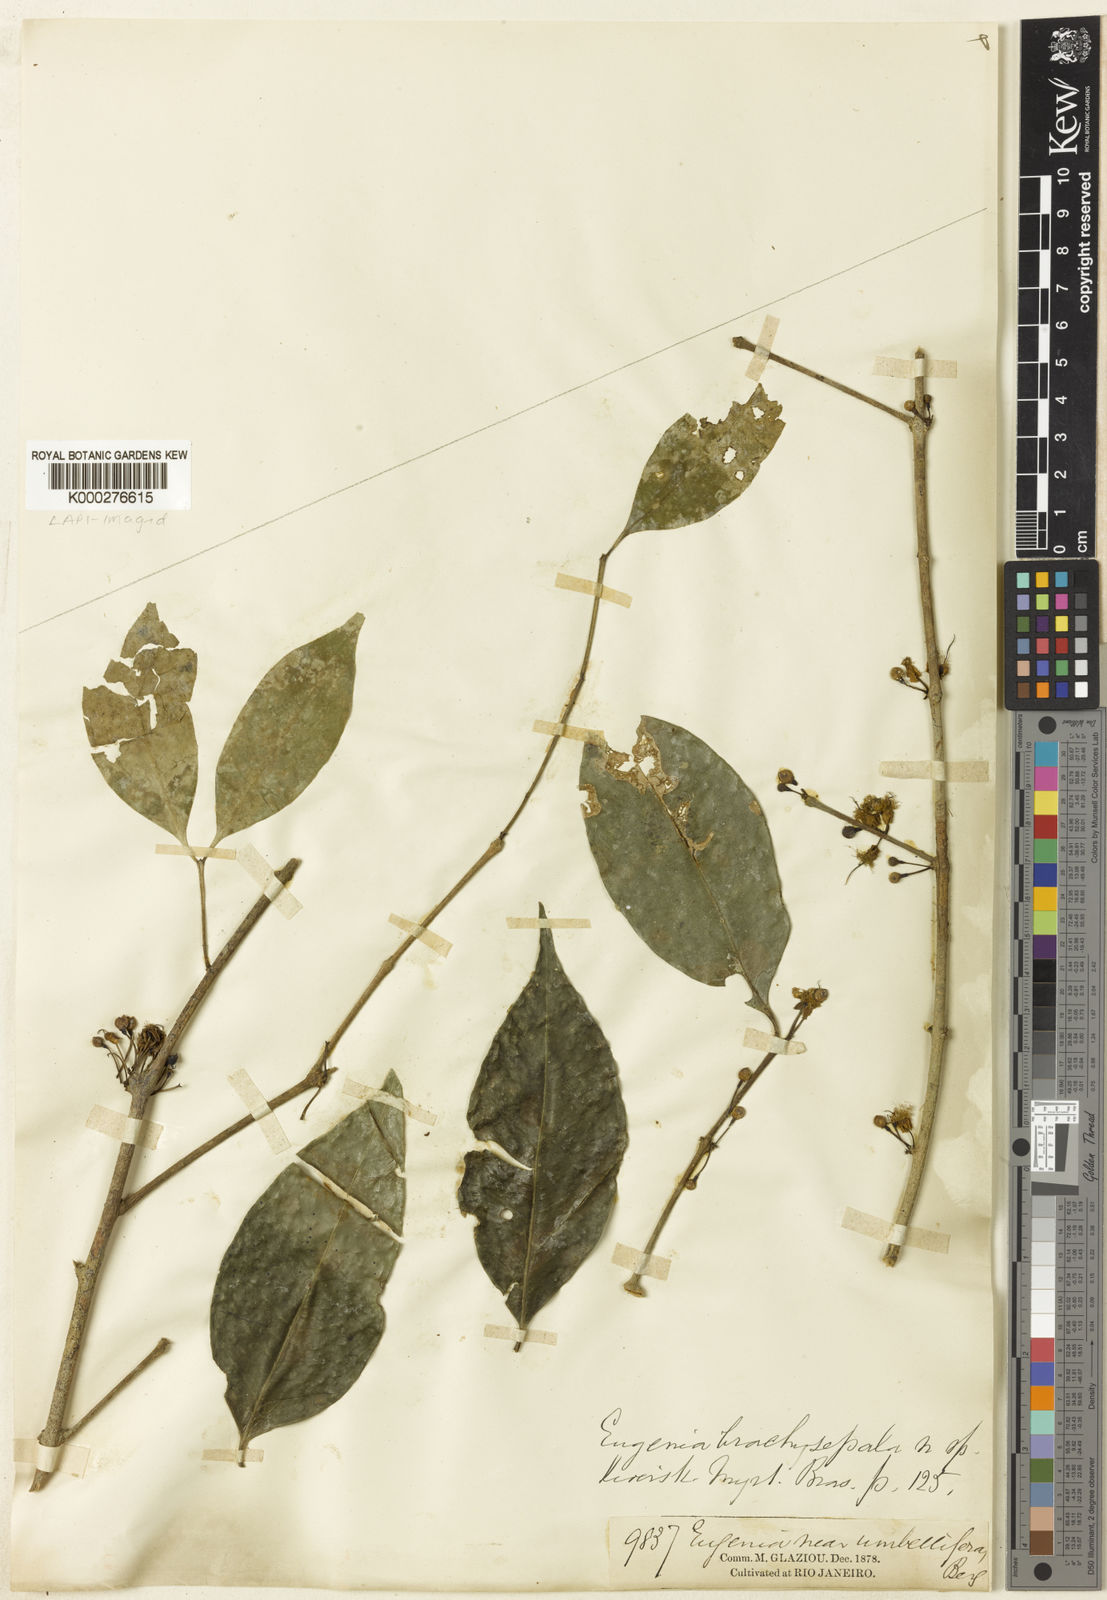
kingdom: Plantae
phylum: Tracheophyta
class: Magnoliopsida
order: Myrtales
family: Myrtaceae
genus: Eugenia
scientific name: Eugenia
